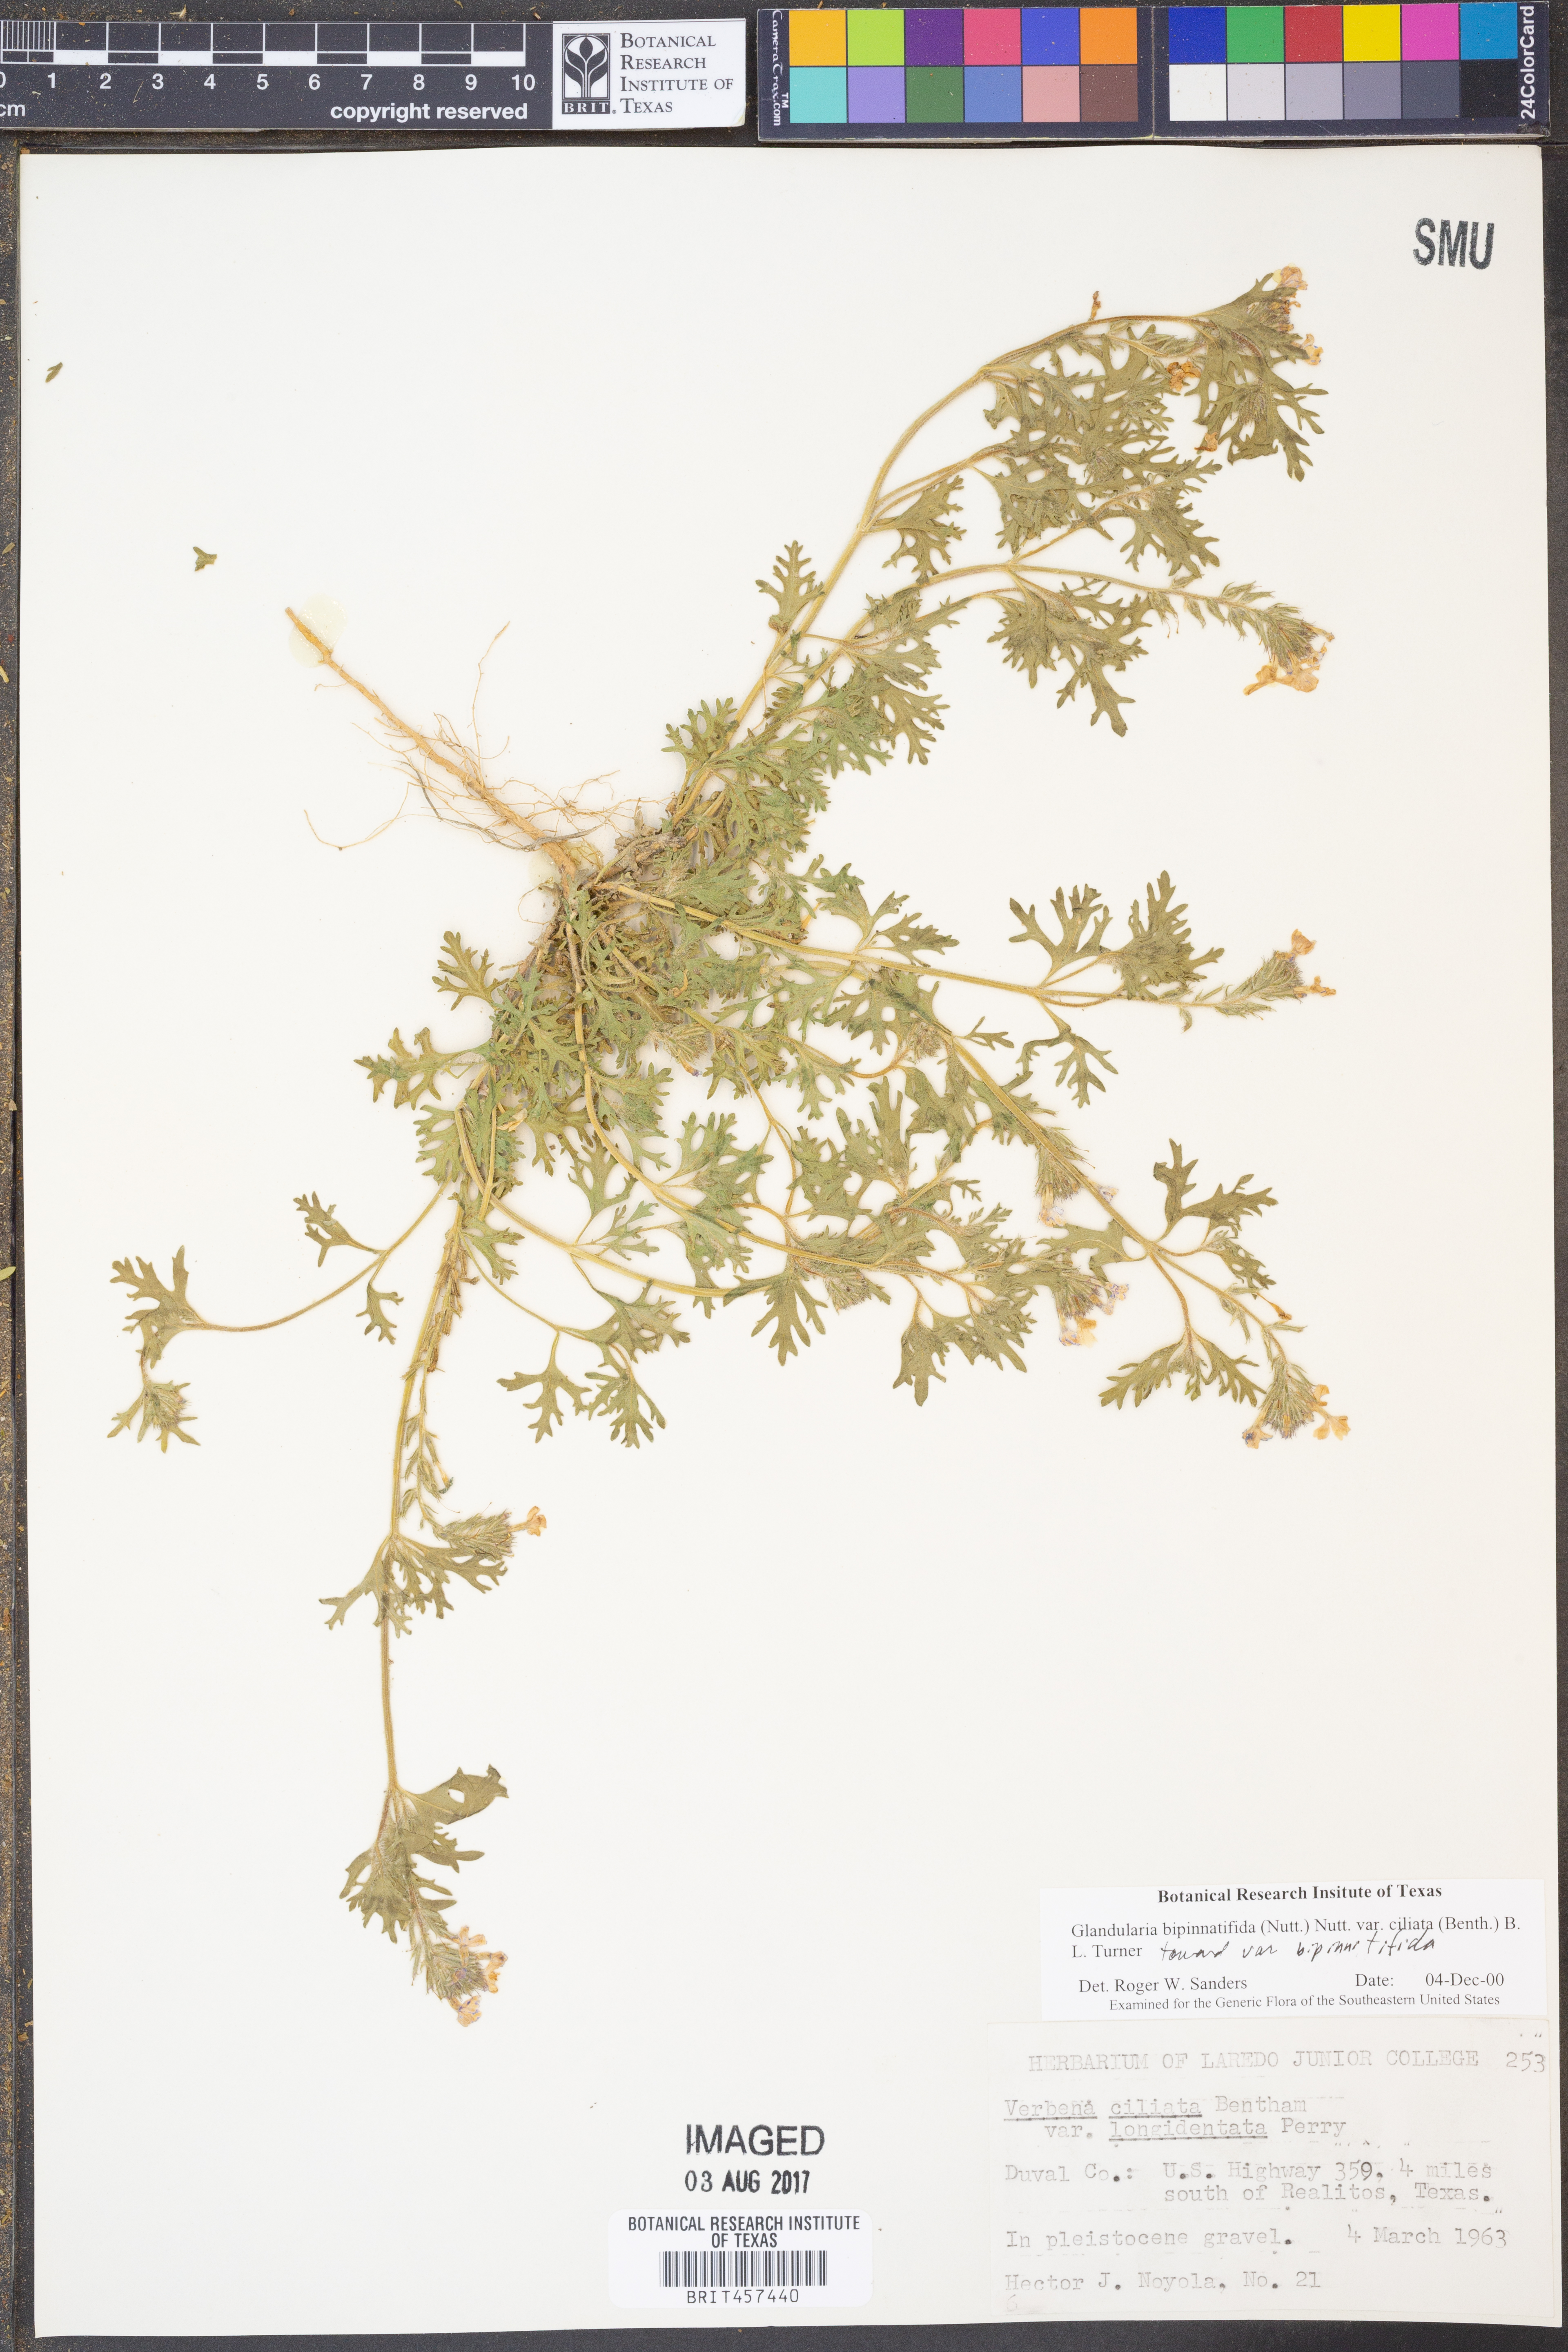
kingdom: Plantae
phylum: Tracheophyta
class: Magnoliopsida
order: Lamiales
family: Verbenaceae
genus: Verbena
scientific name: Verbena bipinnatifida
